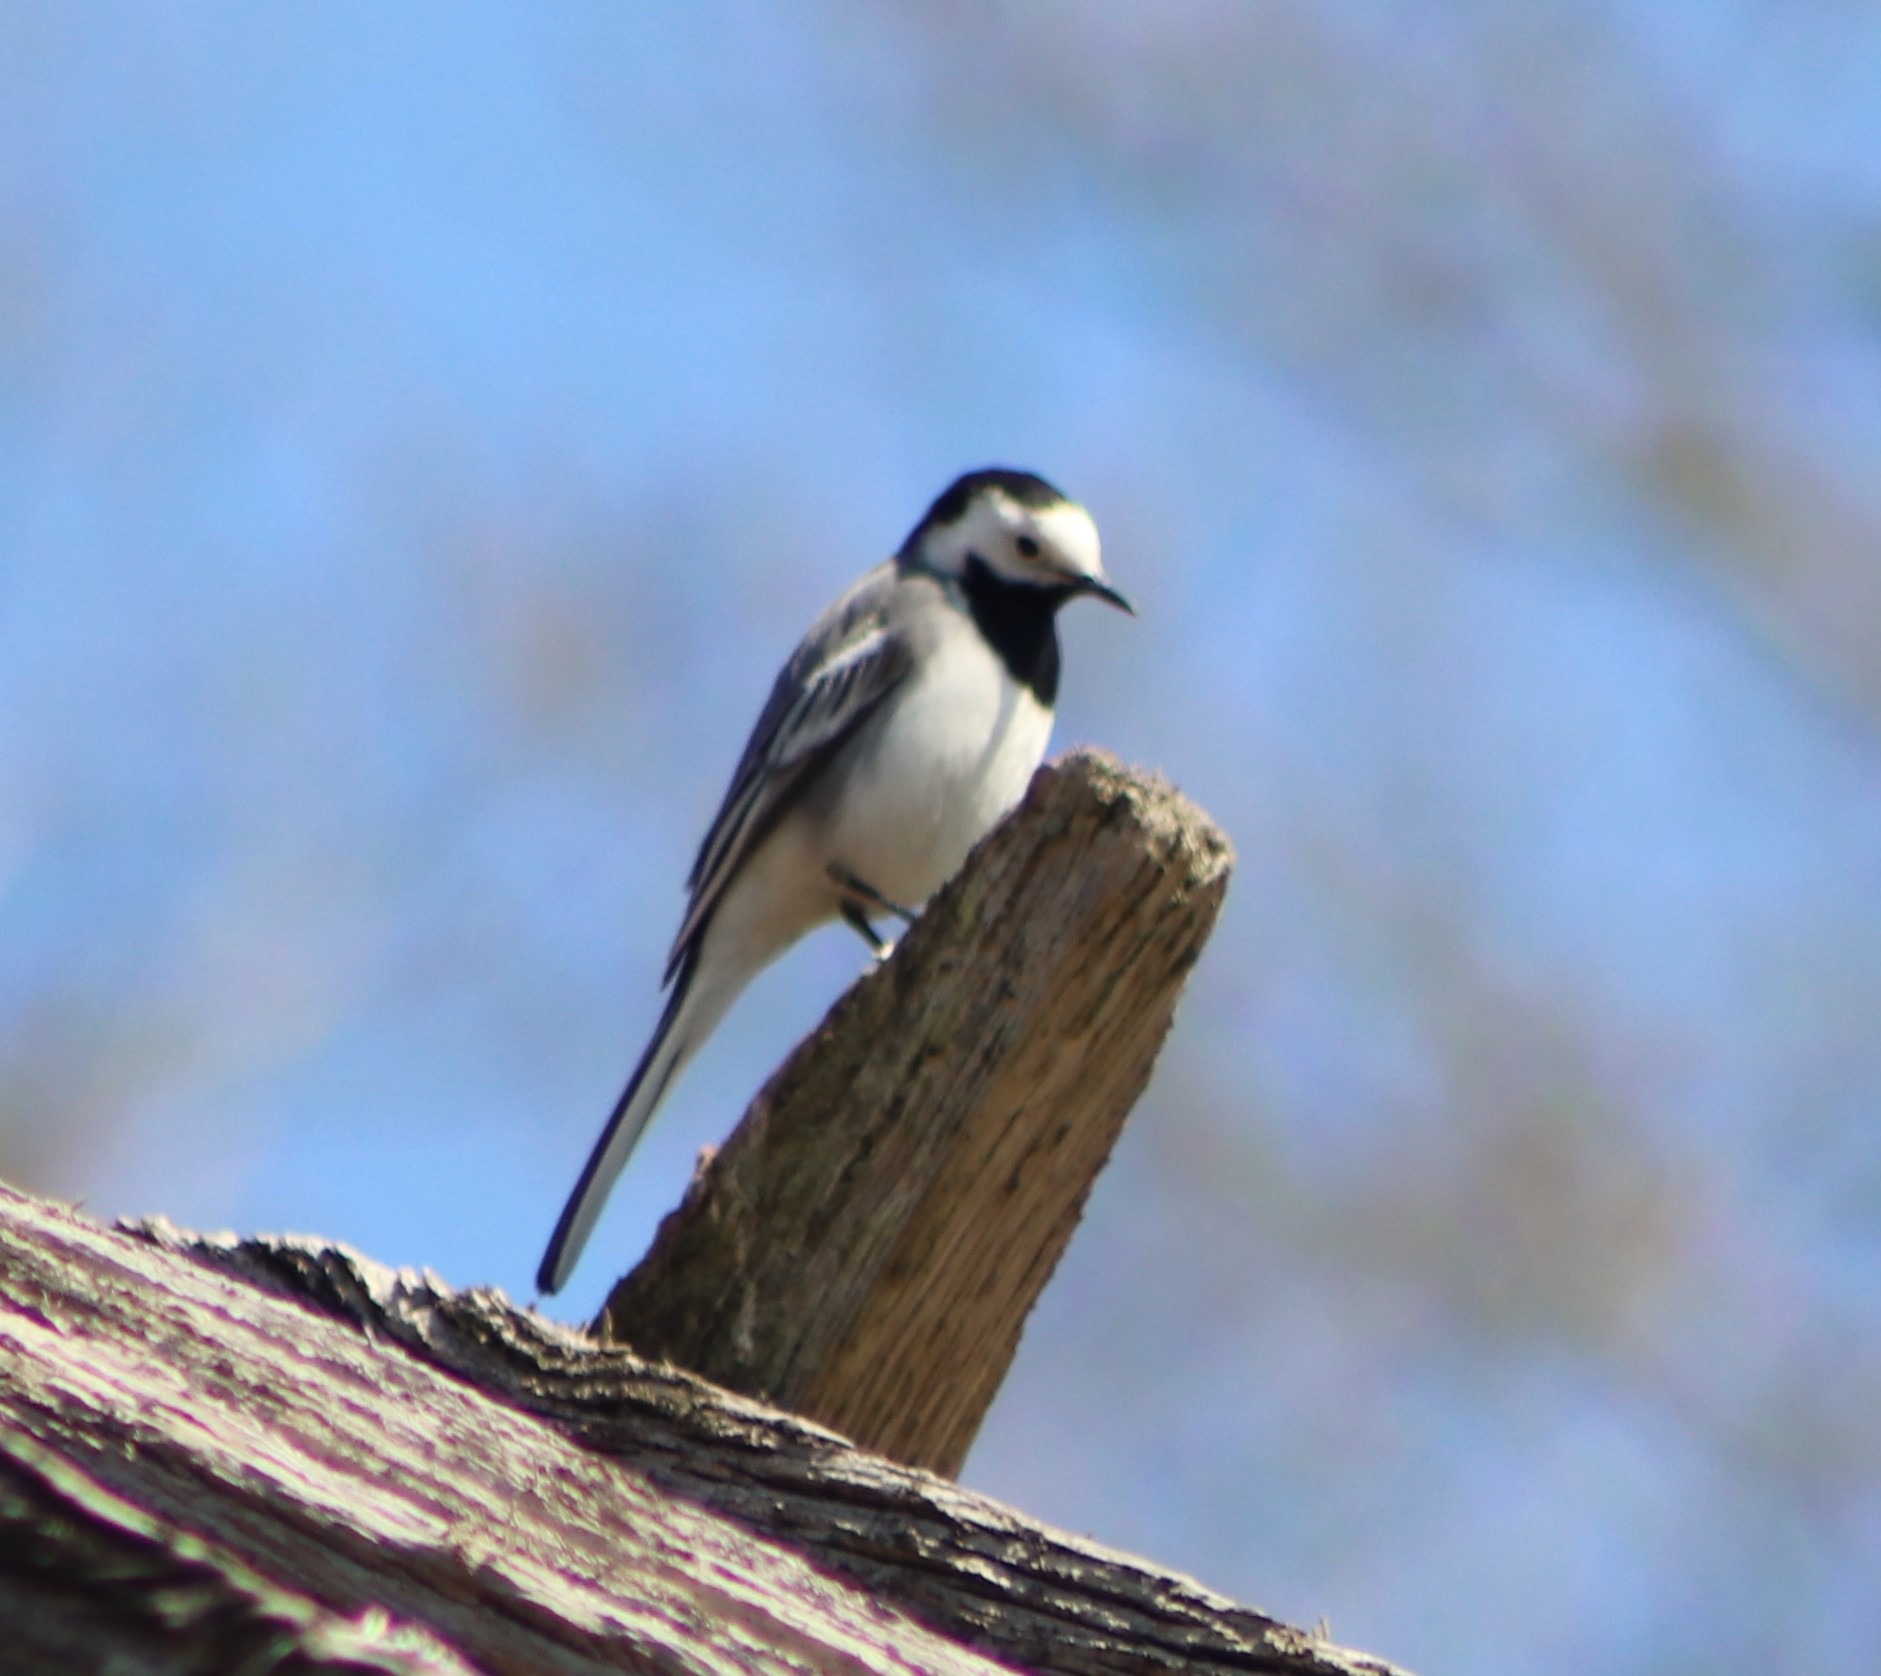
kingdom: Animalia
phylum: Chordata
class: Aves
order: Passeriformes
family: Motacillidae
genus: Motacilla
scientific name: Motacilla alba
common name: Hvid vipstjert
